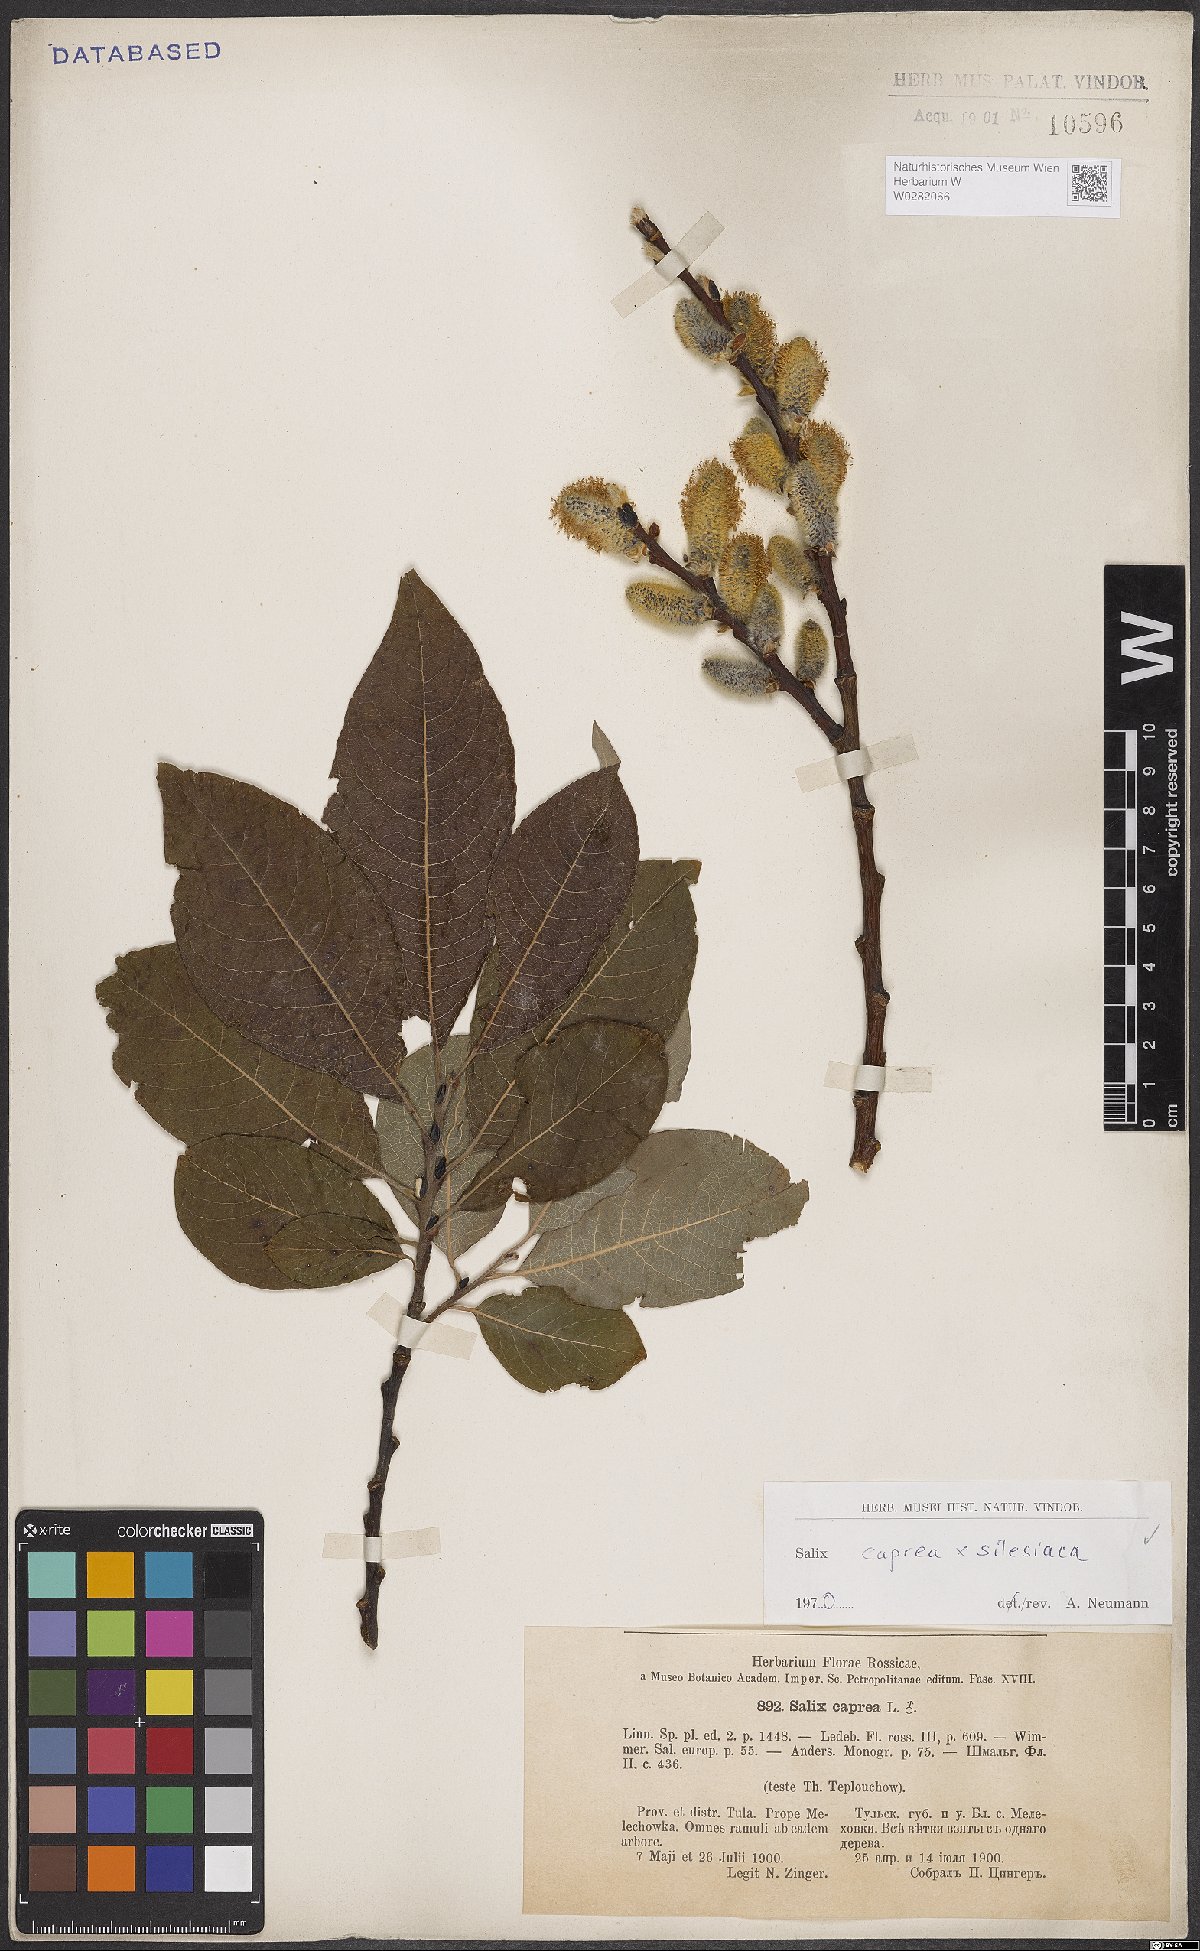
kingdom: Plantae
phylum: Tracheophyta
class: Magnoliopsida
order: Malpighiales
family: Salicaceae
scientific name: Salicaceae
